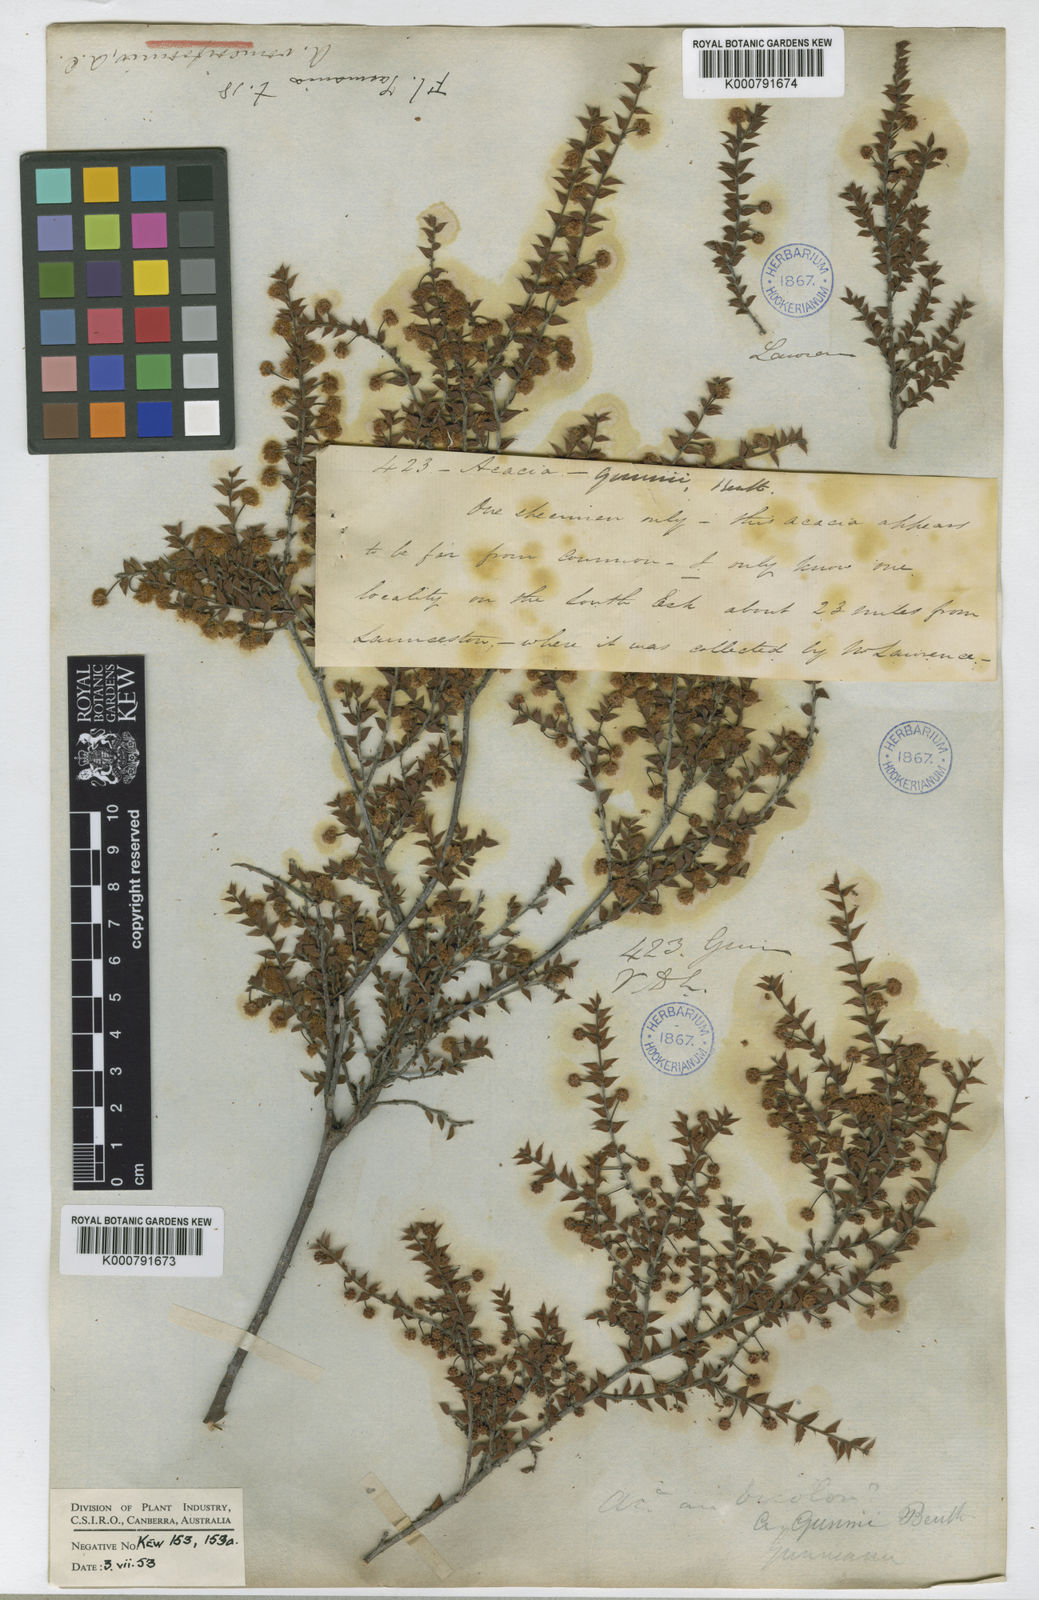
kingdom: Plantae
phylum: Tracheophyta
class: Magnoliopsida
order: Fabales
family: Fabaceae
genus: Acacia
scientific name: Acacia gunnii
